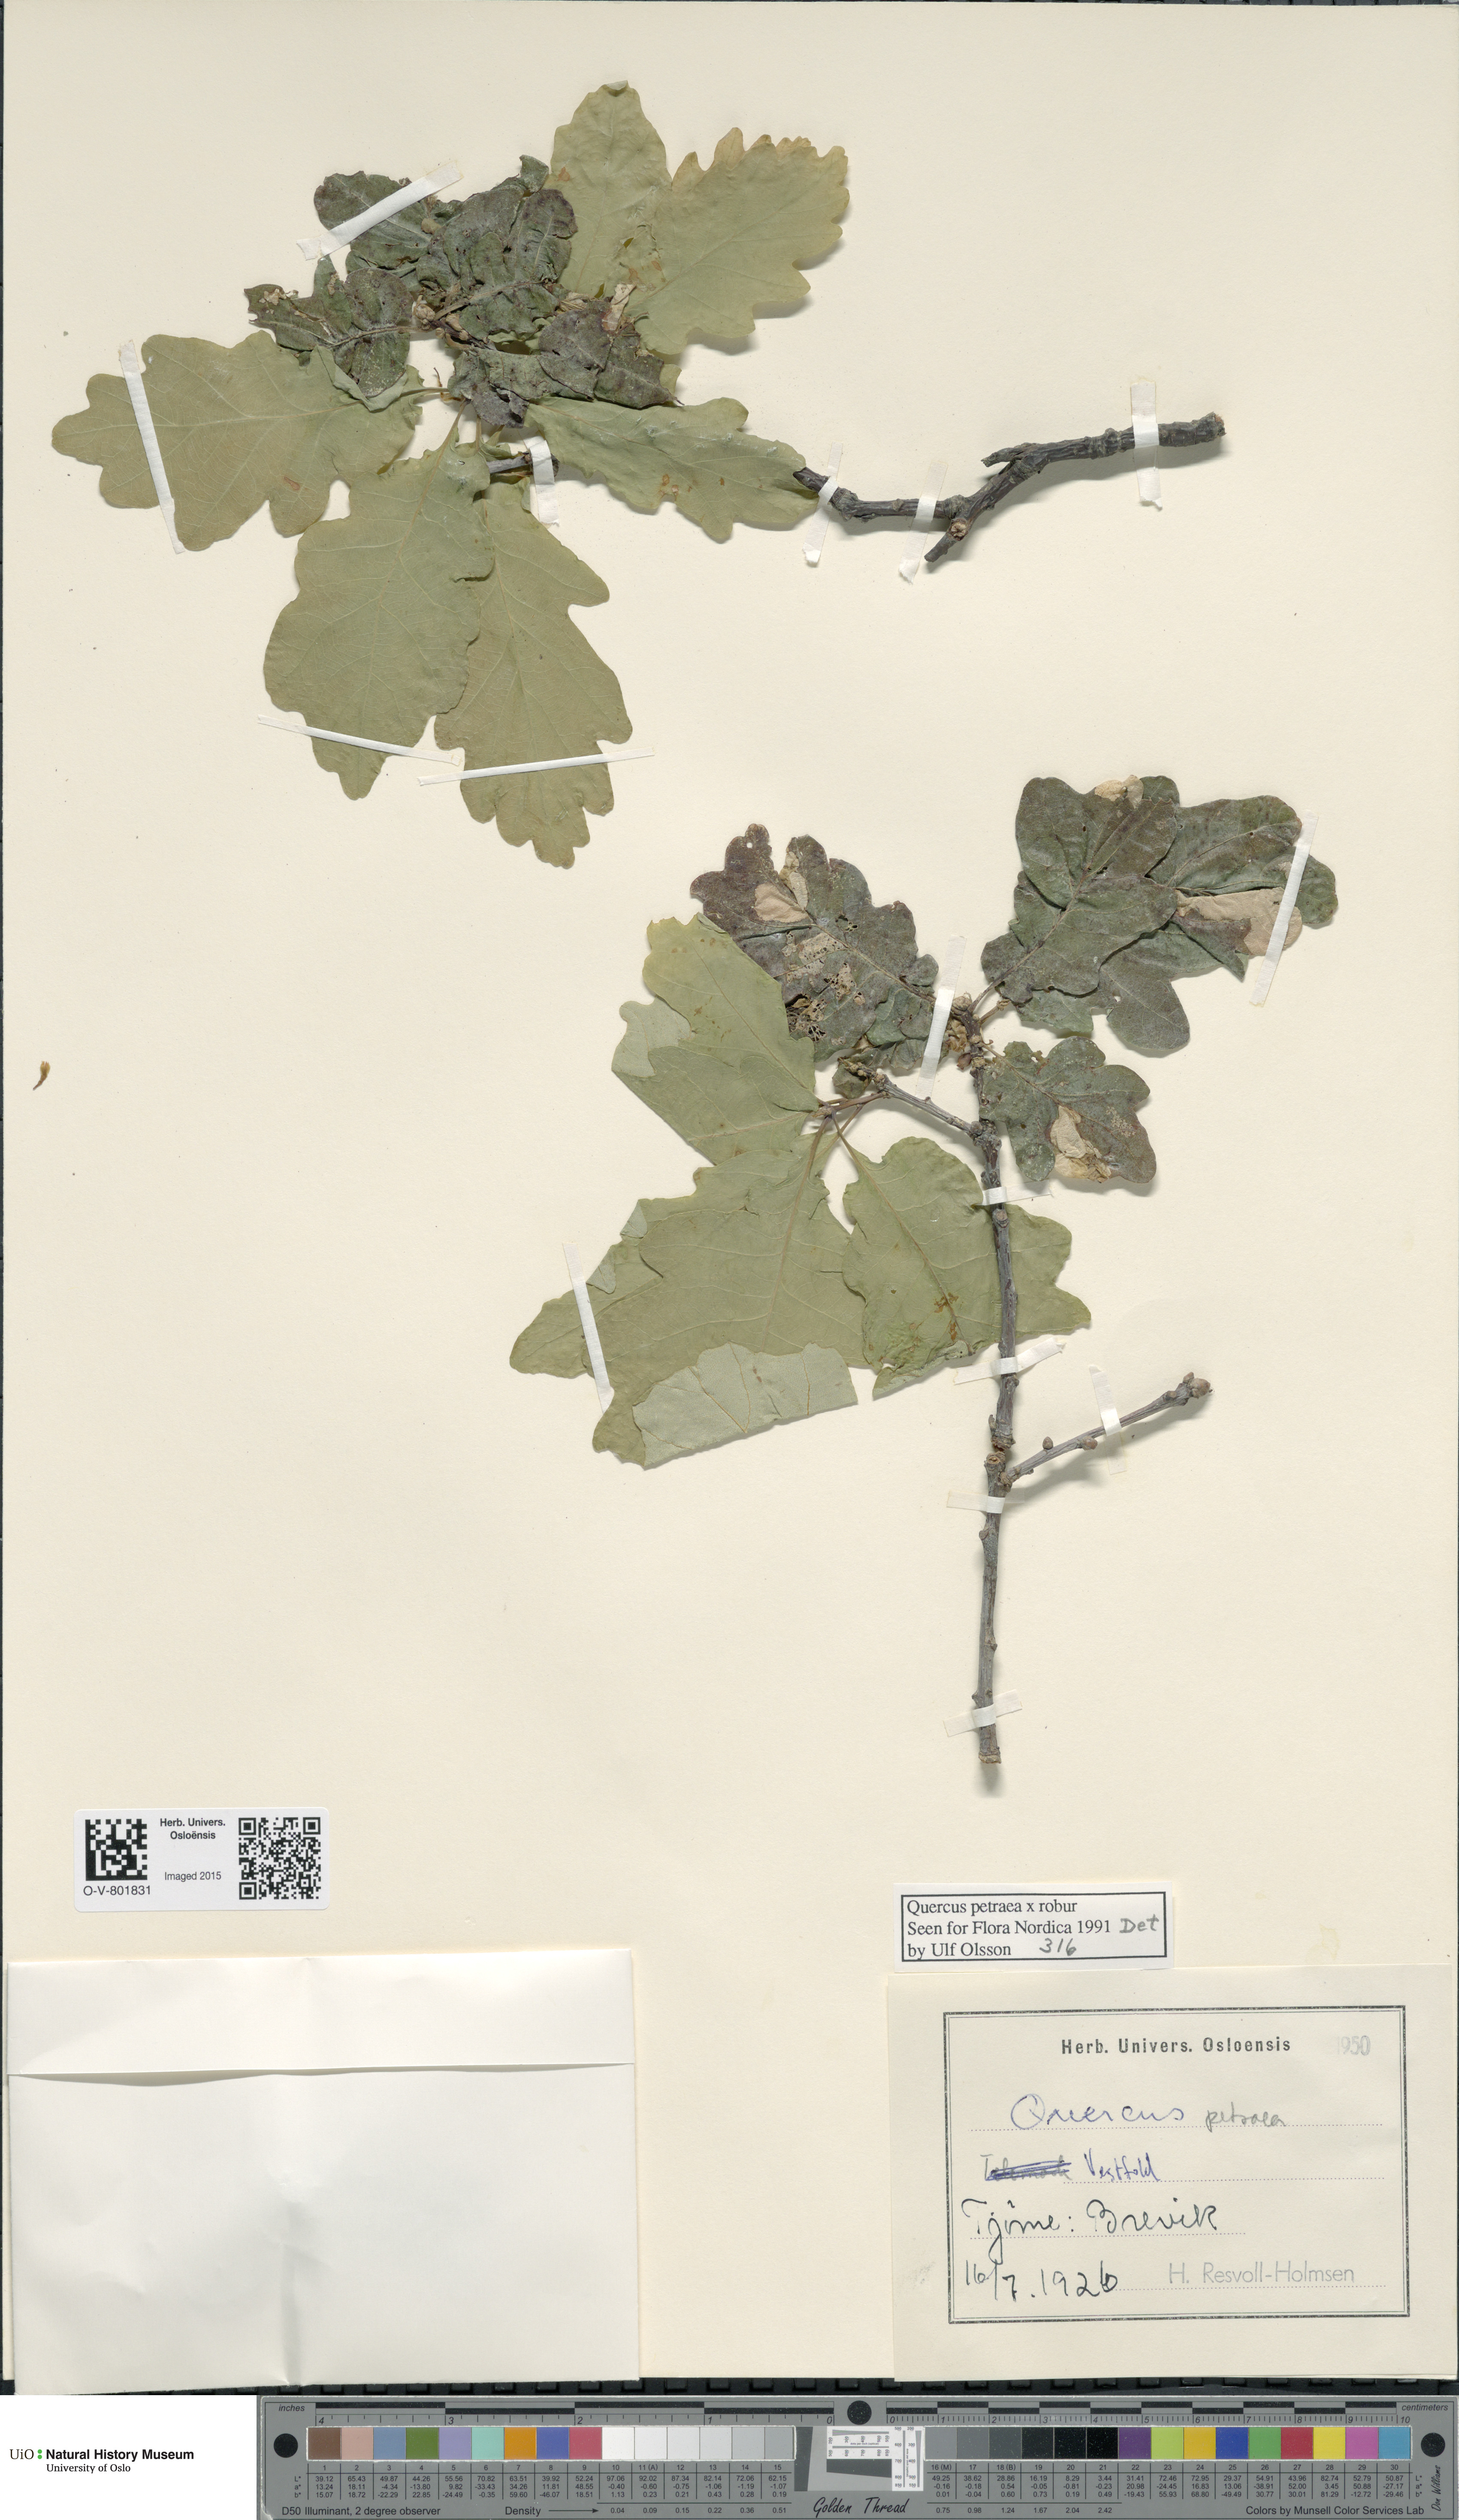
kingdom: Plantae
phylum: Tracheophyta
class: Magnoliopsida
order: Fagales
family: Fagaceae
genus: Quercus
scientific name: Quercus petraea
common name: Sessile oak
